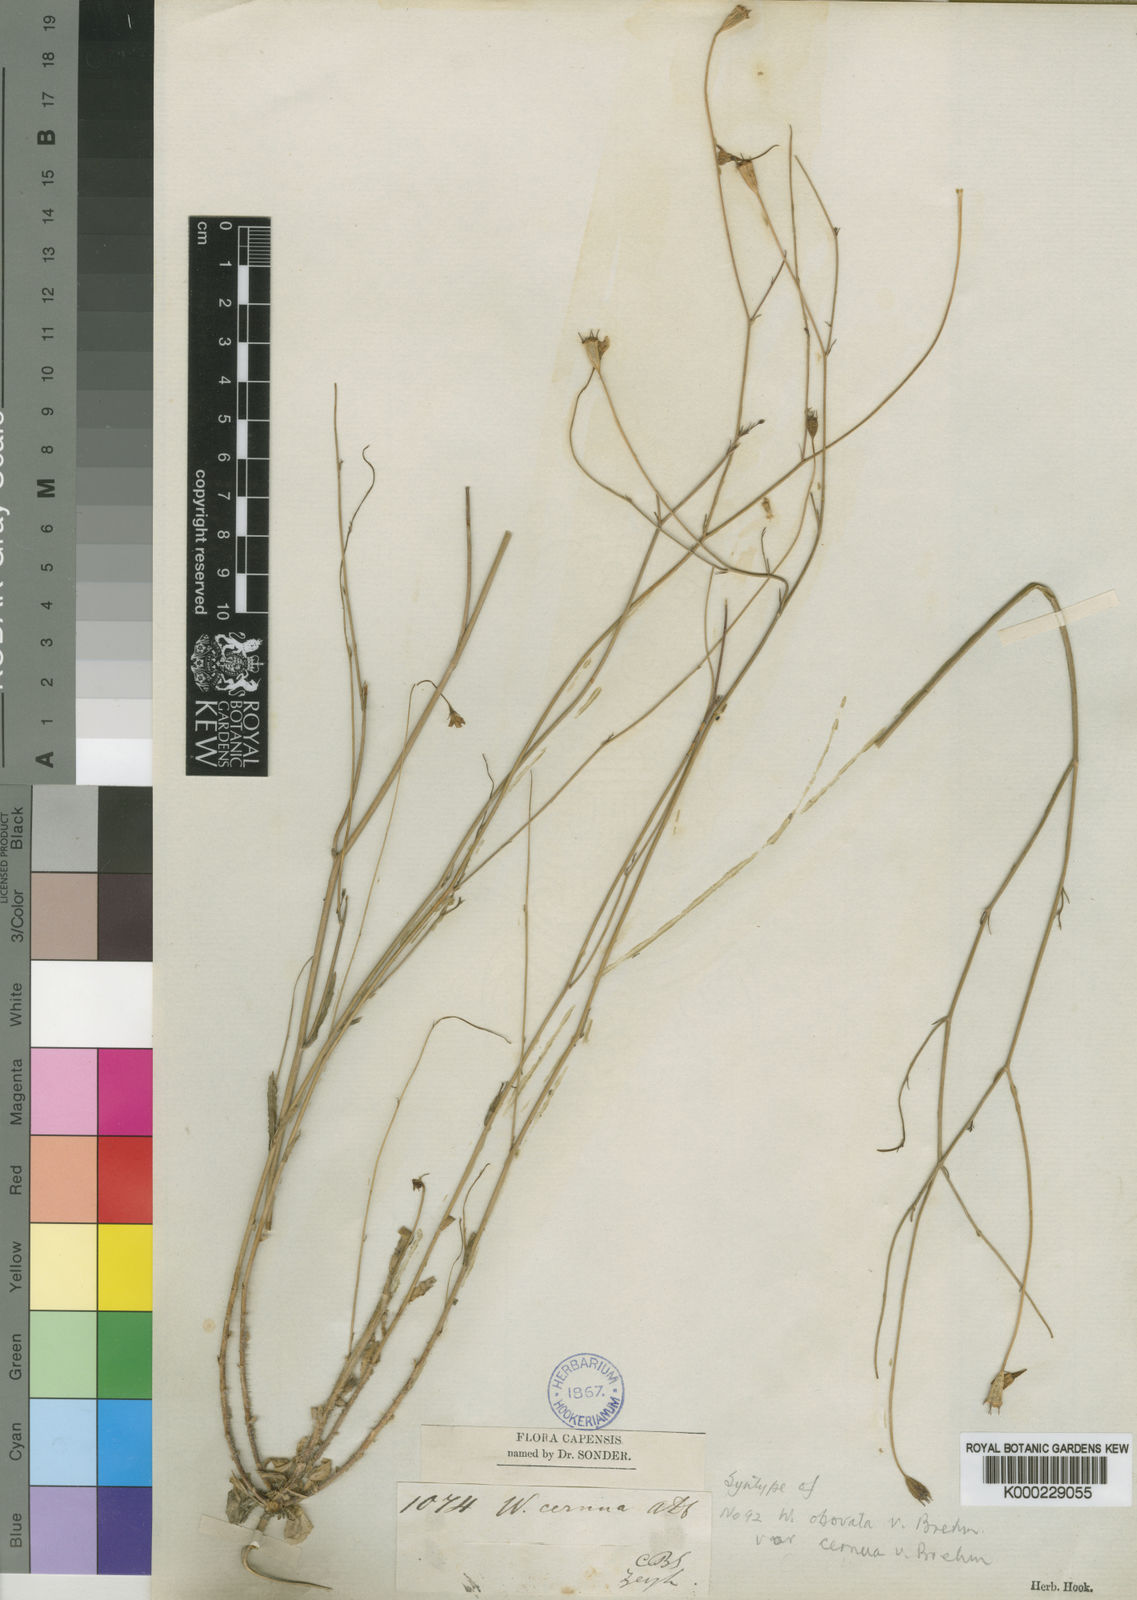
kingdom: Plantae
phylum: Tracheophyta
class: Magnoliopsida
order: Asterales
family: Campanulaceae
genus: Wahlenbergia
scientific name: Wahlenbergia obovata
